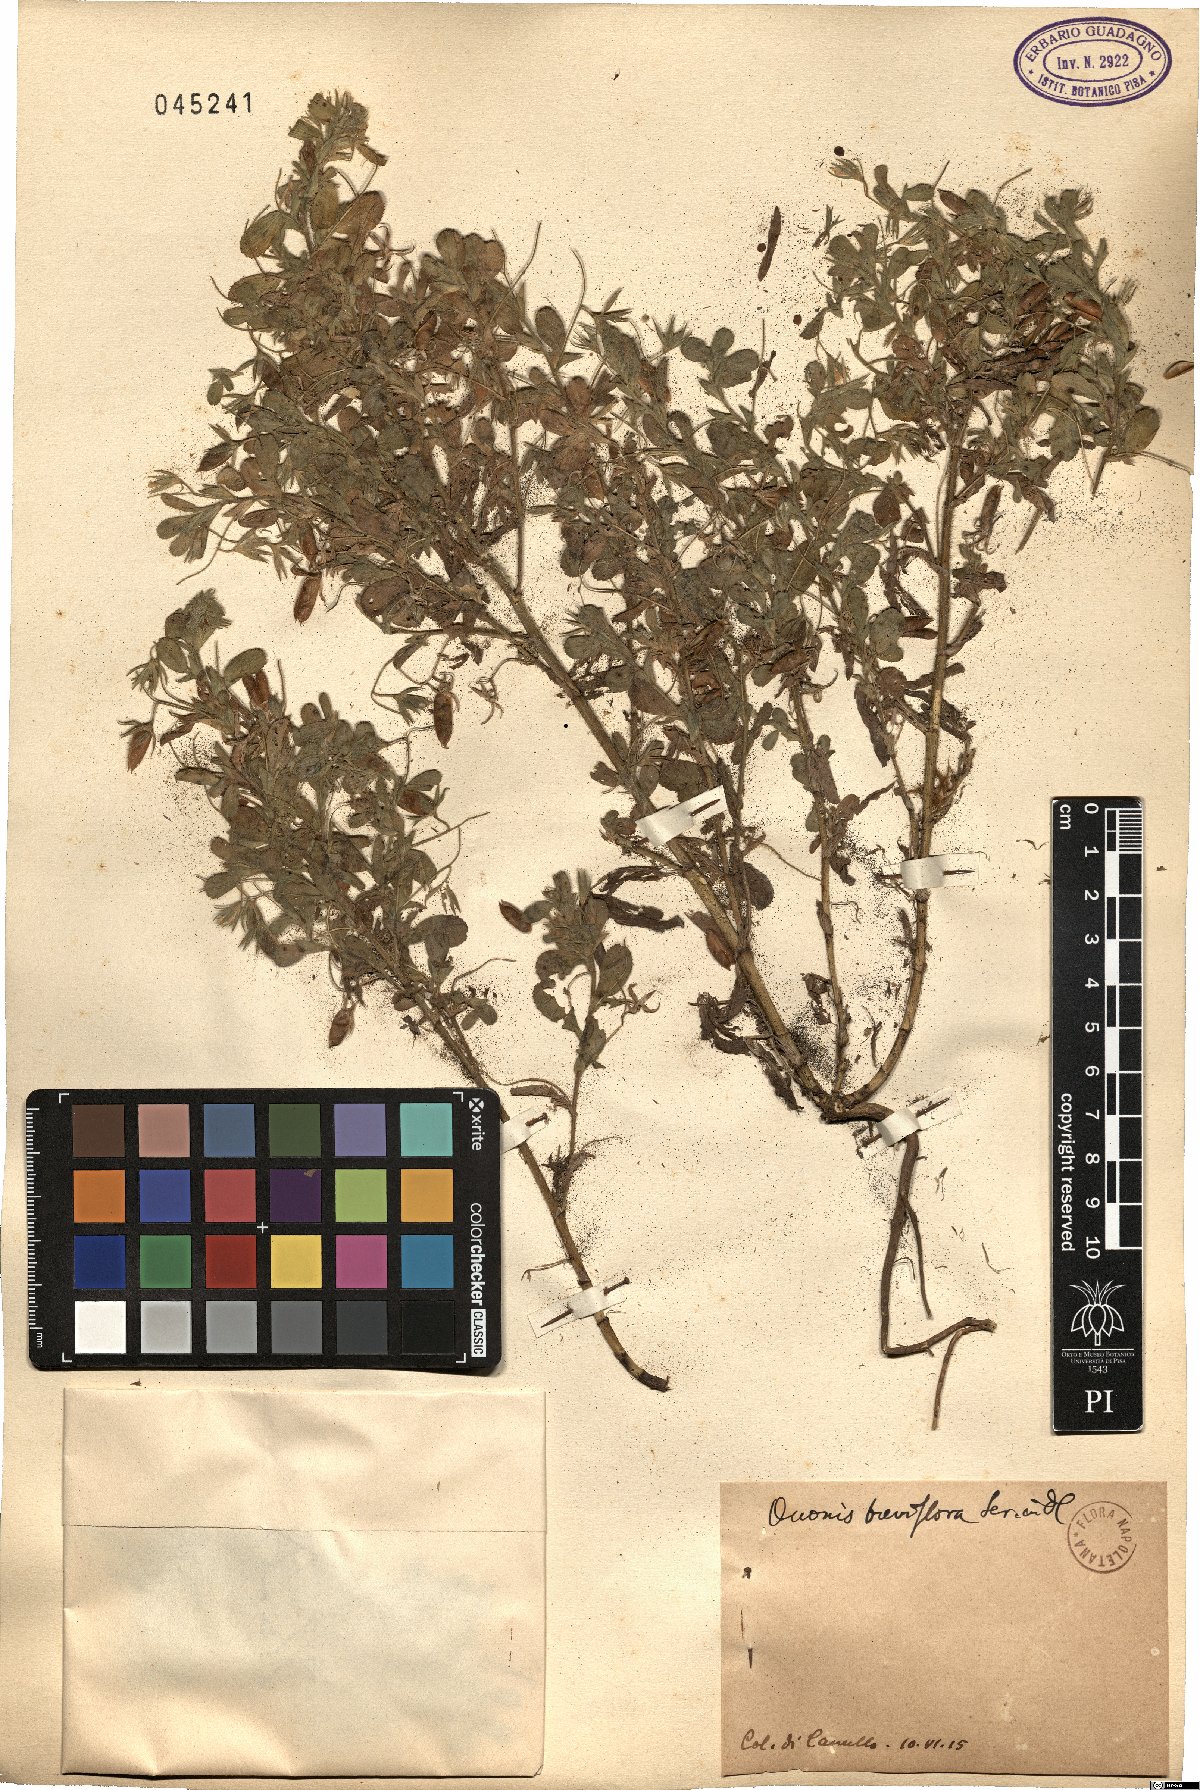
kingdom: Plantae
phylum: Tracheophyta
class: Magnoliopsida
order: Fabales
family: Fabaceae
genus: Ononis
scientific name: Ononis viscosa
